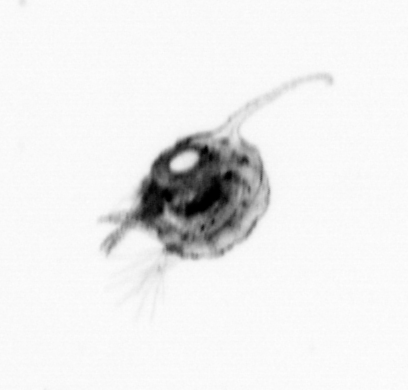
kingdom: Animalia
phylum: Arthropoda
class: Malacostraca
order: Decapoda
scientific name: Decapoda
